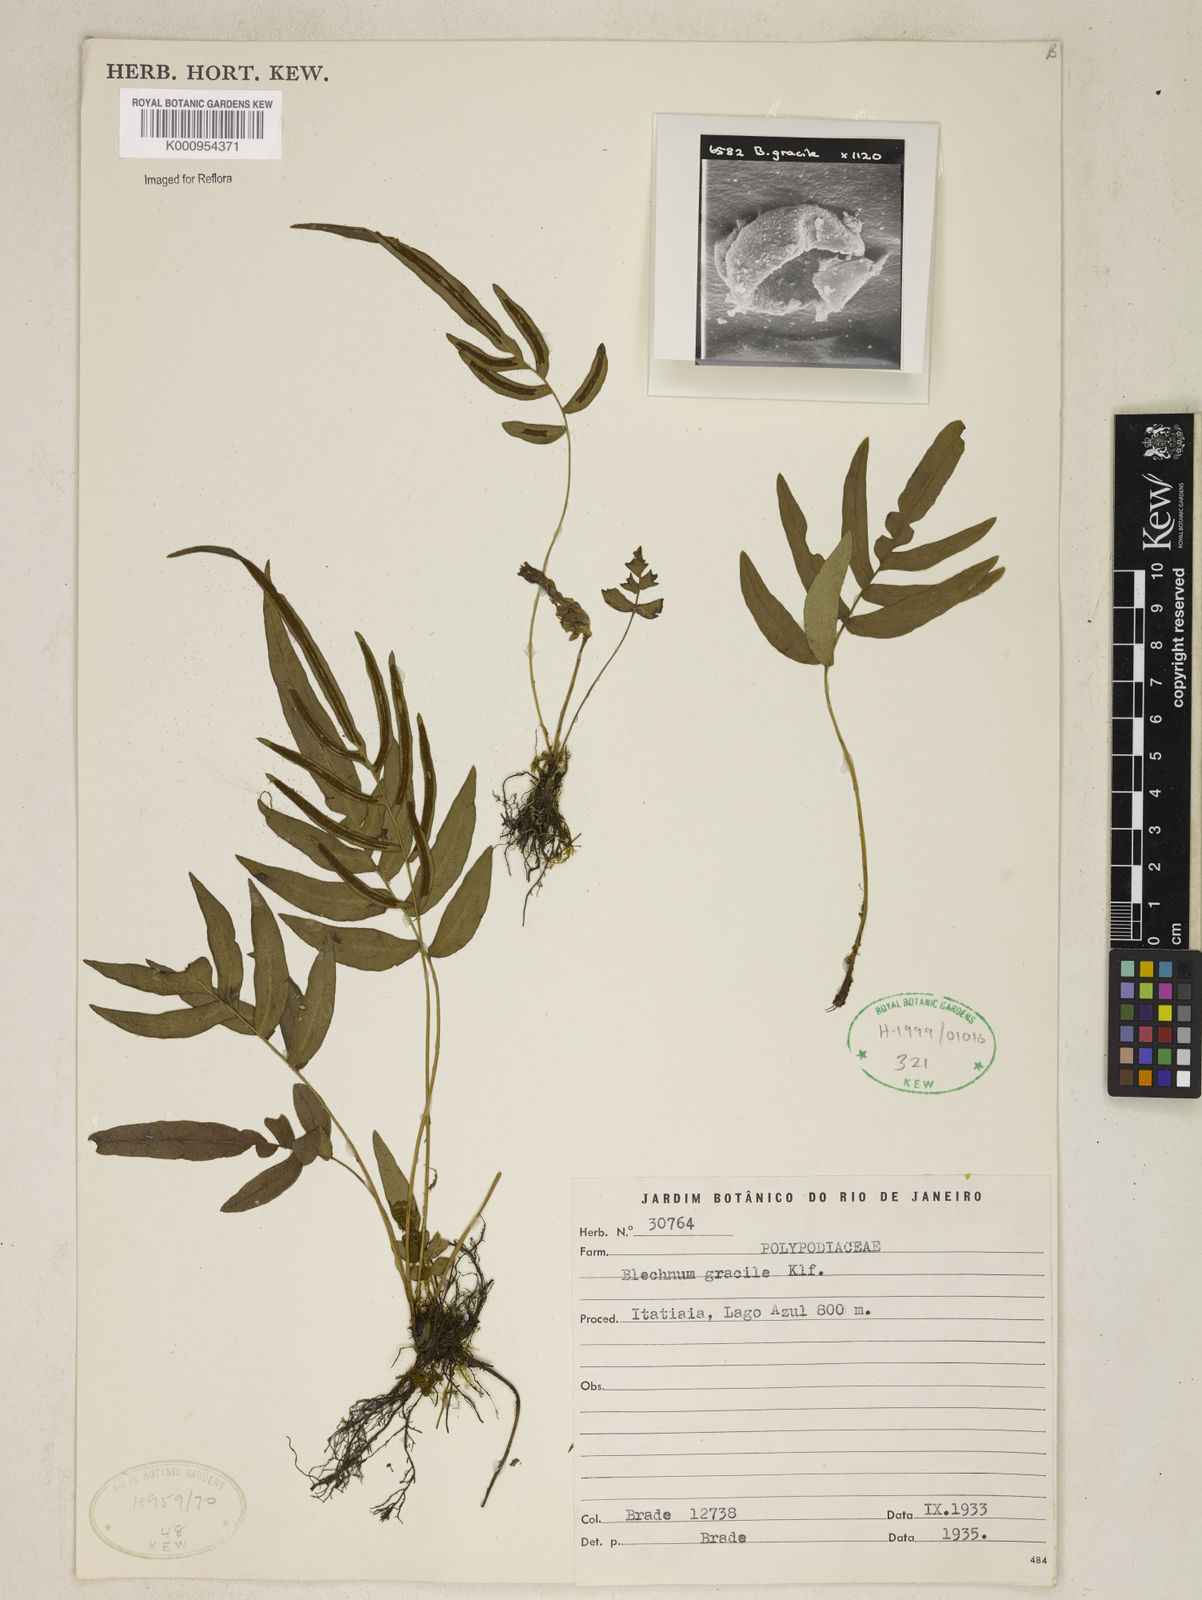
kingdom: Plantae
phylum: Tracheophyta
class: Polypodiopsida
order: Polypodiales
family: Blechnaceae
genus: Blechnum
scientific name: Blechnum gracile
